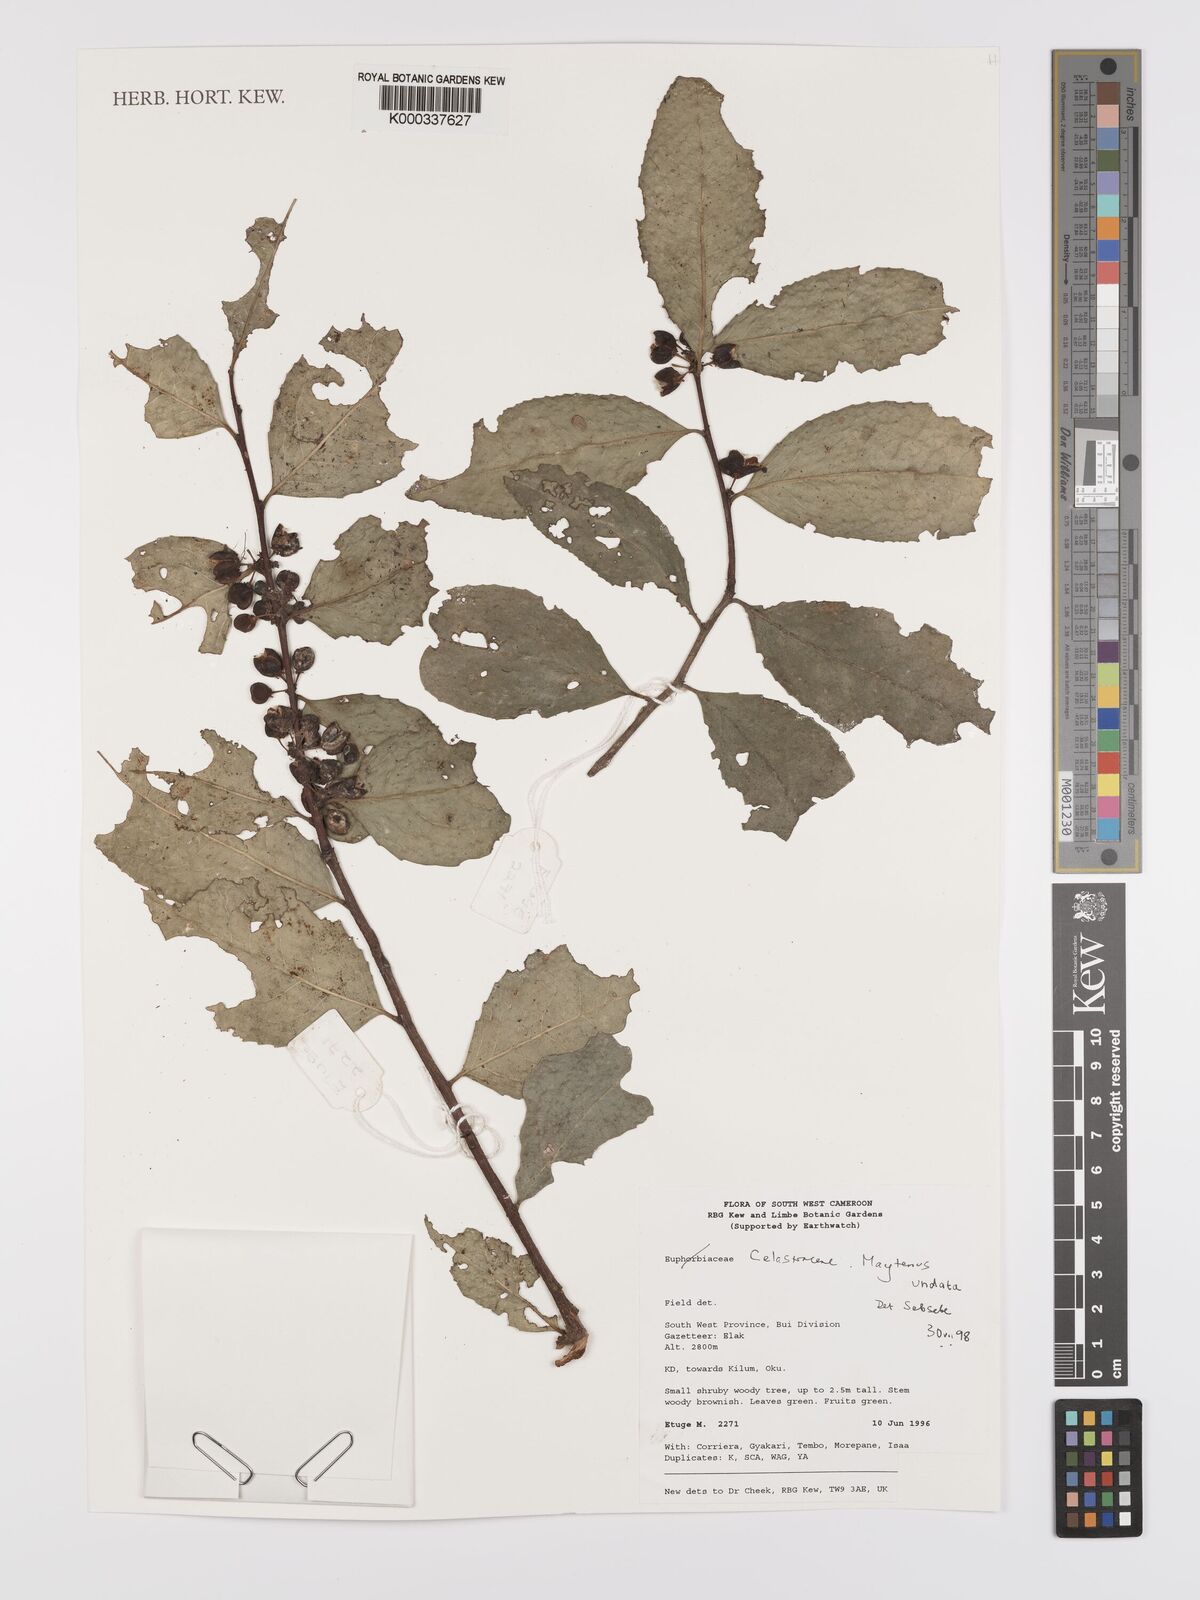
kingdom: Plantae
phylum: Tracheophyta
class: Magnoliopsida
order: Celastrales
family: Celastraceae
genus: Gymnosporia
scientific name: Gymnosporia undata
